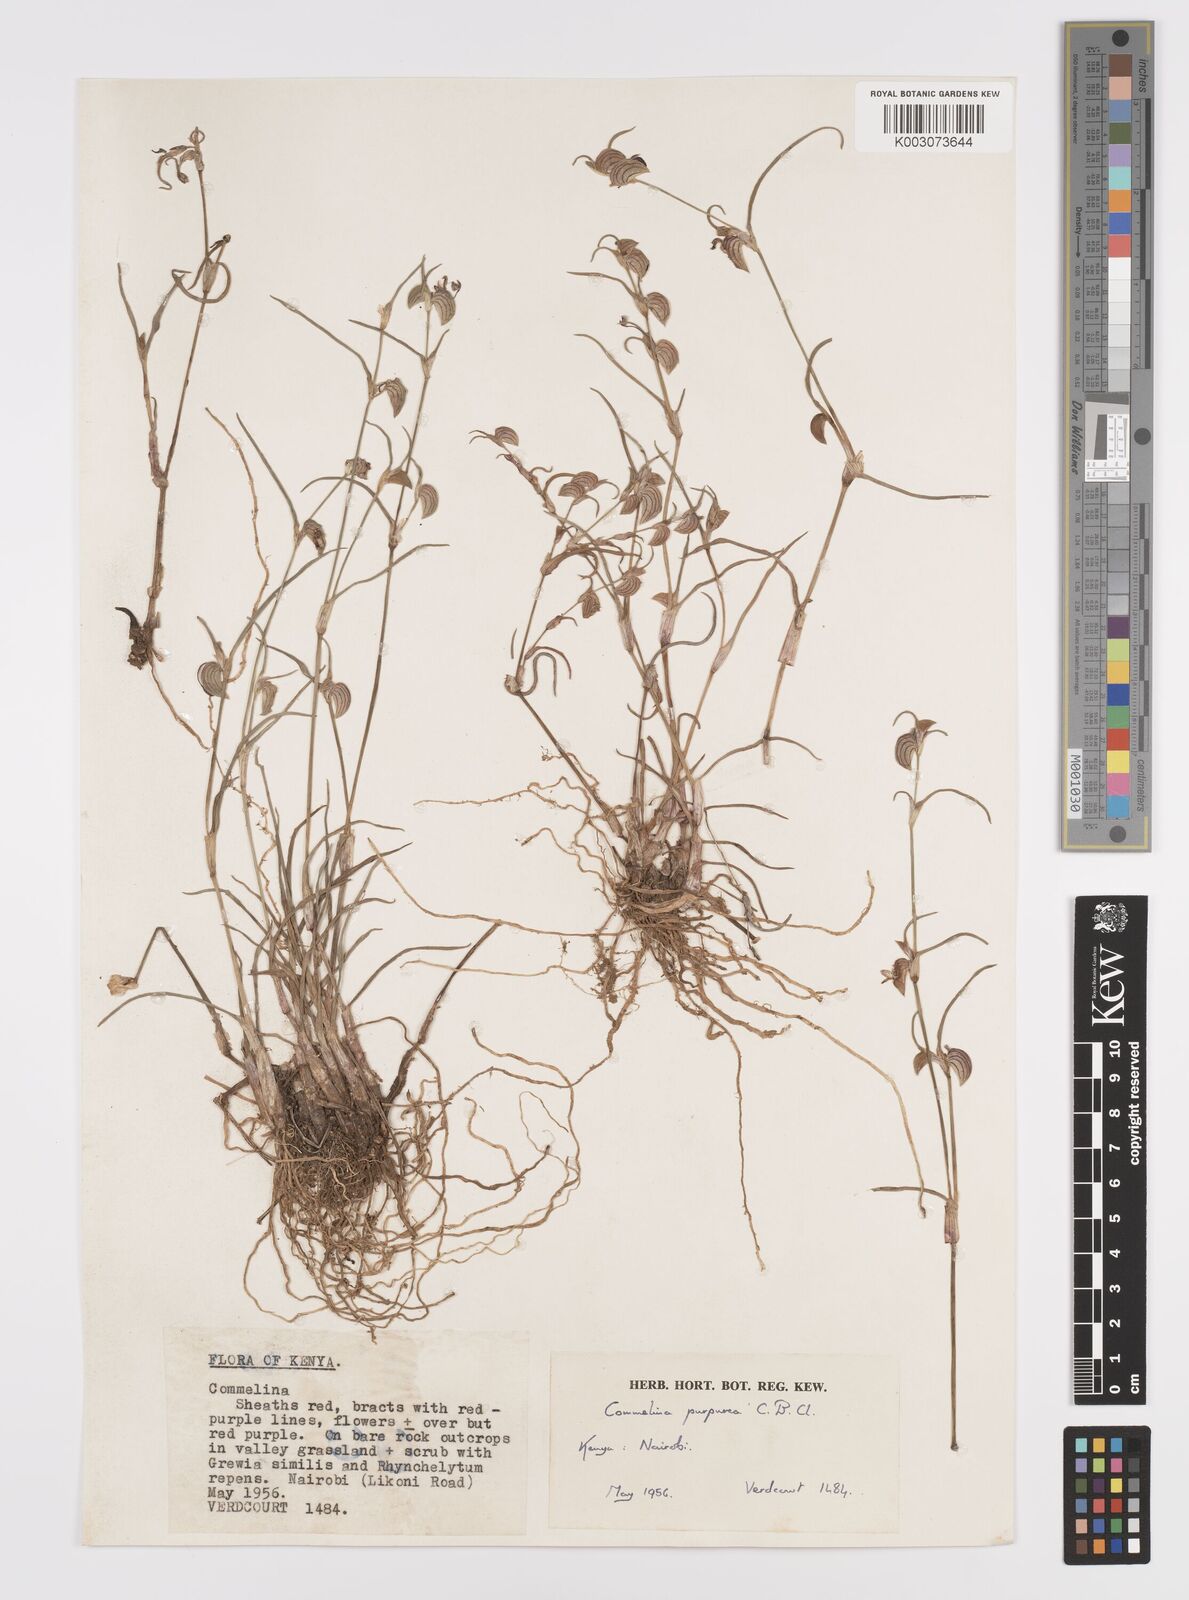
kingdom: Plantae
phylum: Tracheophyta
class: Liliopsida
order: Commelinales
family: Commelinaceae
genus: Commelina
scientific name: Commelina purpurea
